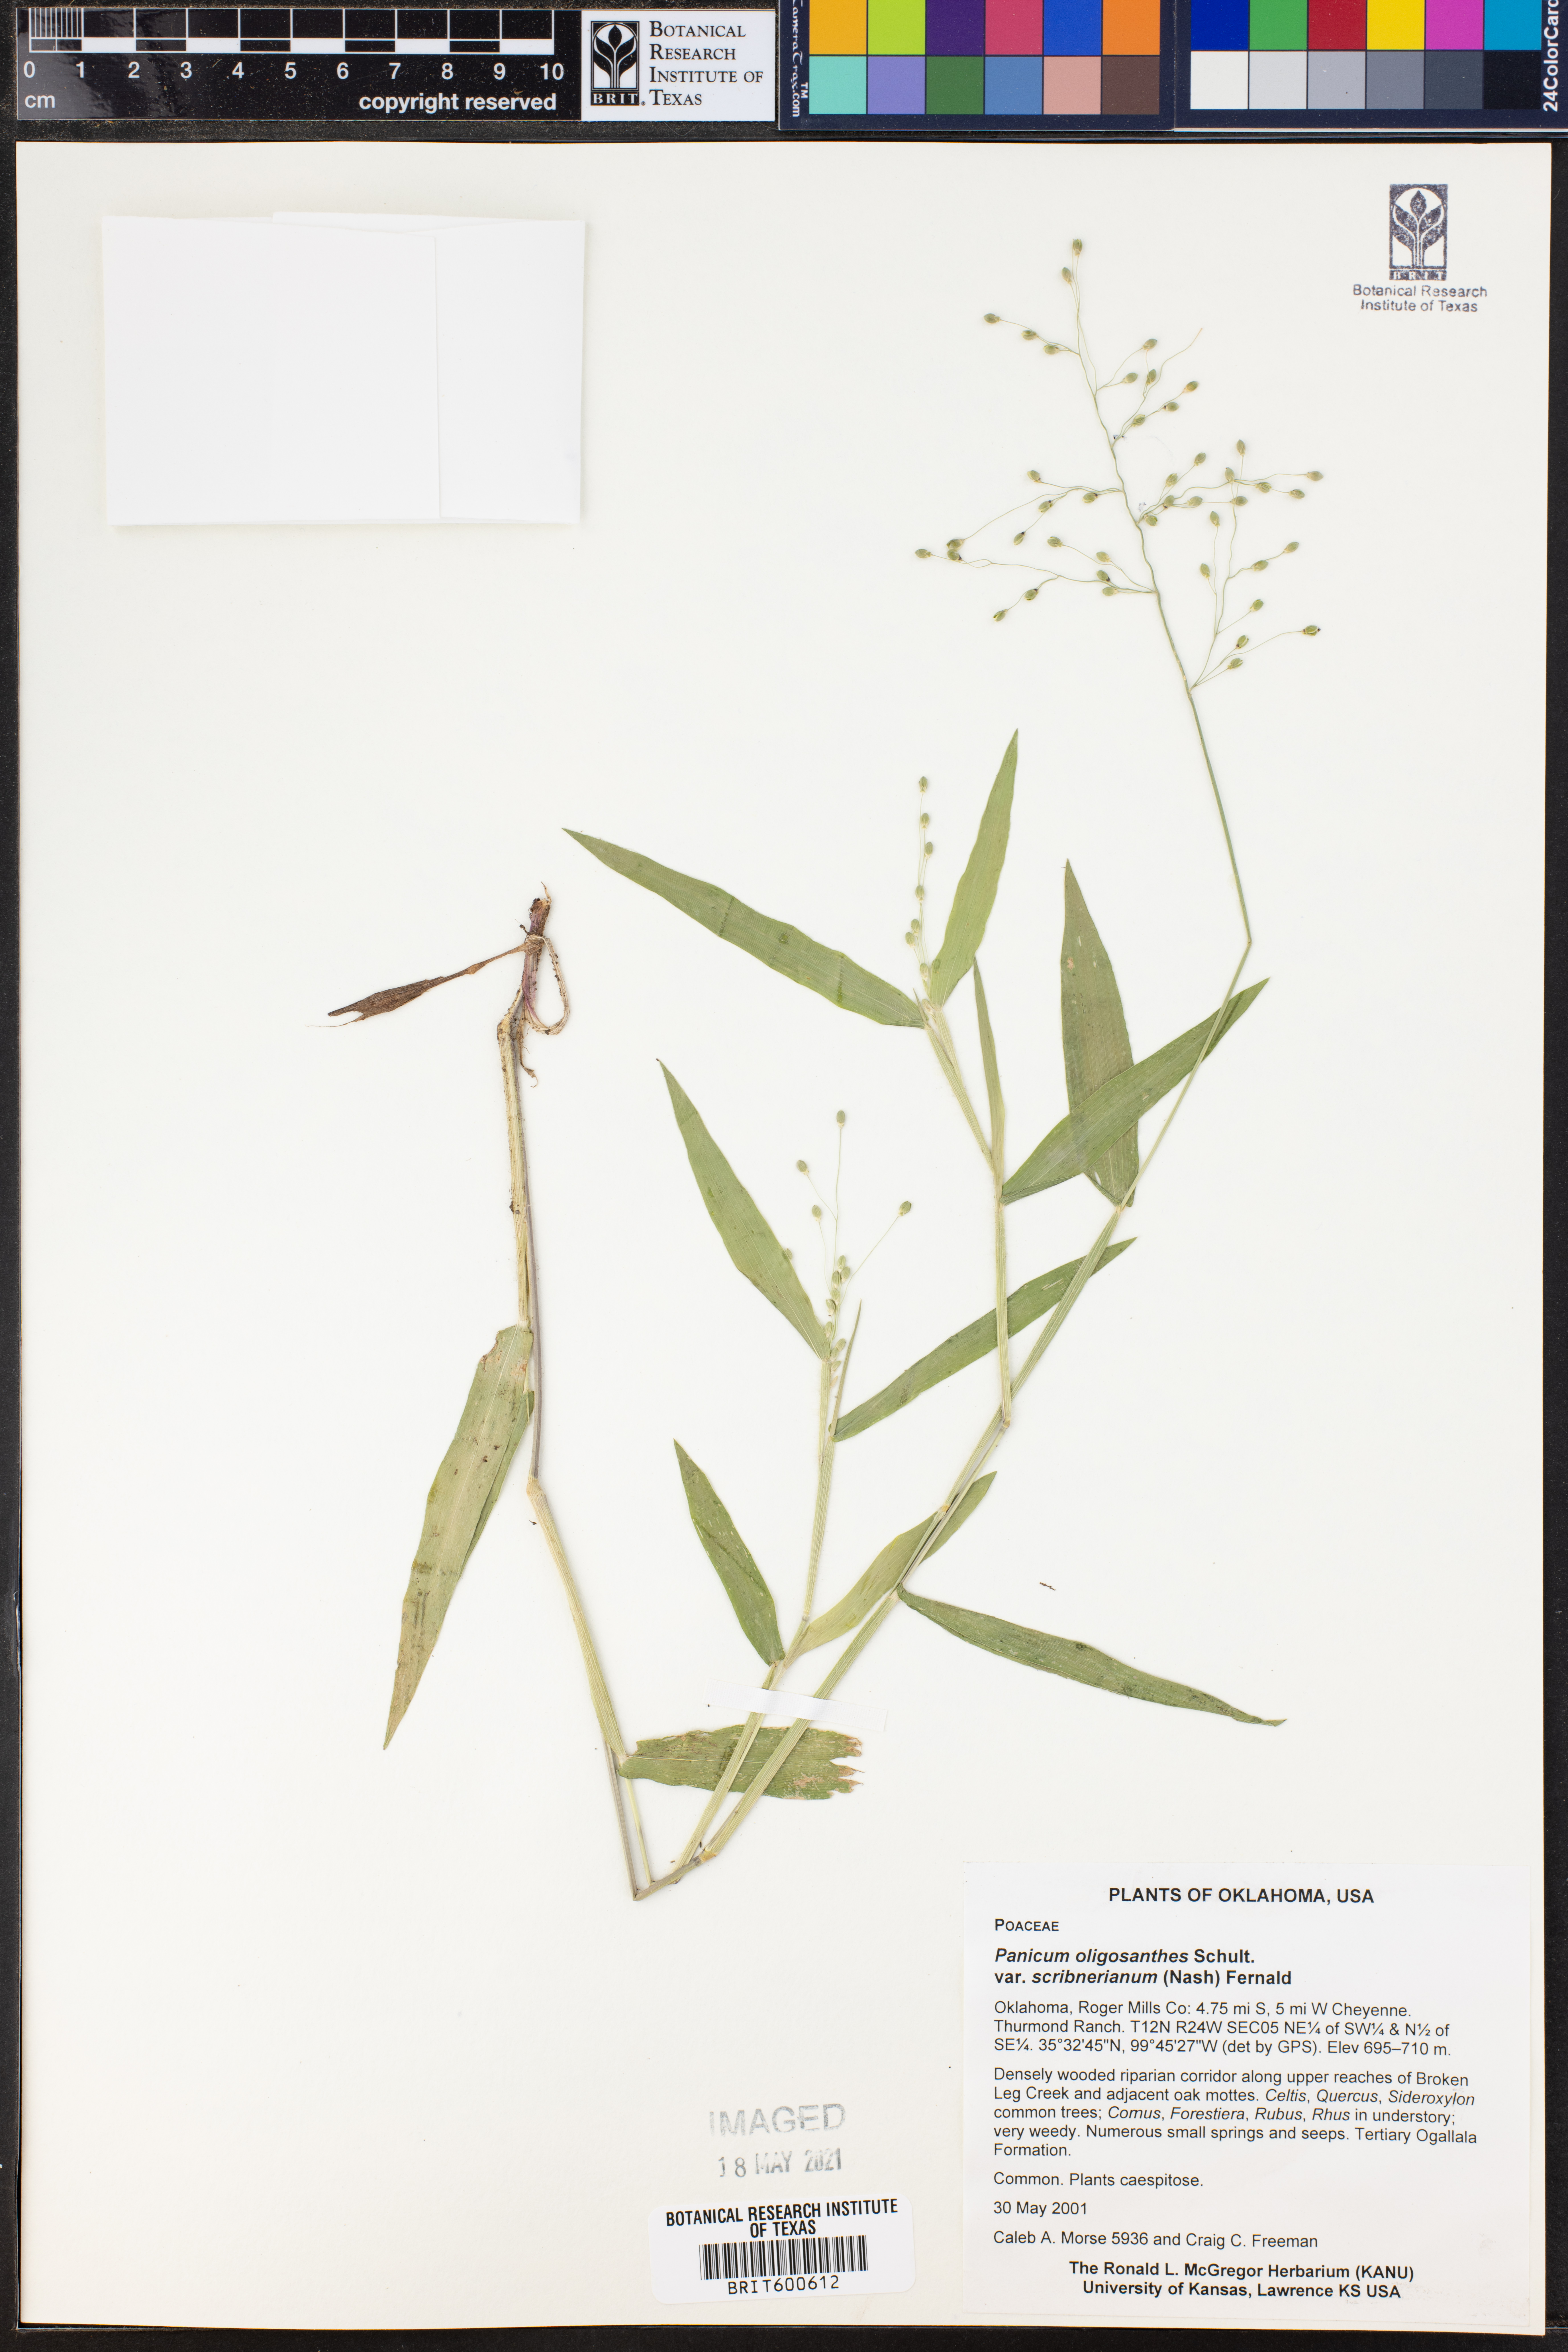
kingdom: Plantae
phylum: Tracheophyta
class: Liliopsida
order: Poales
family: Poaceae
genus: Dichanthelium
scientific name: Dichanthelium scribnerianum
